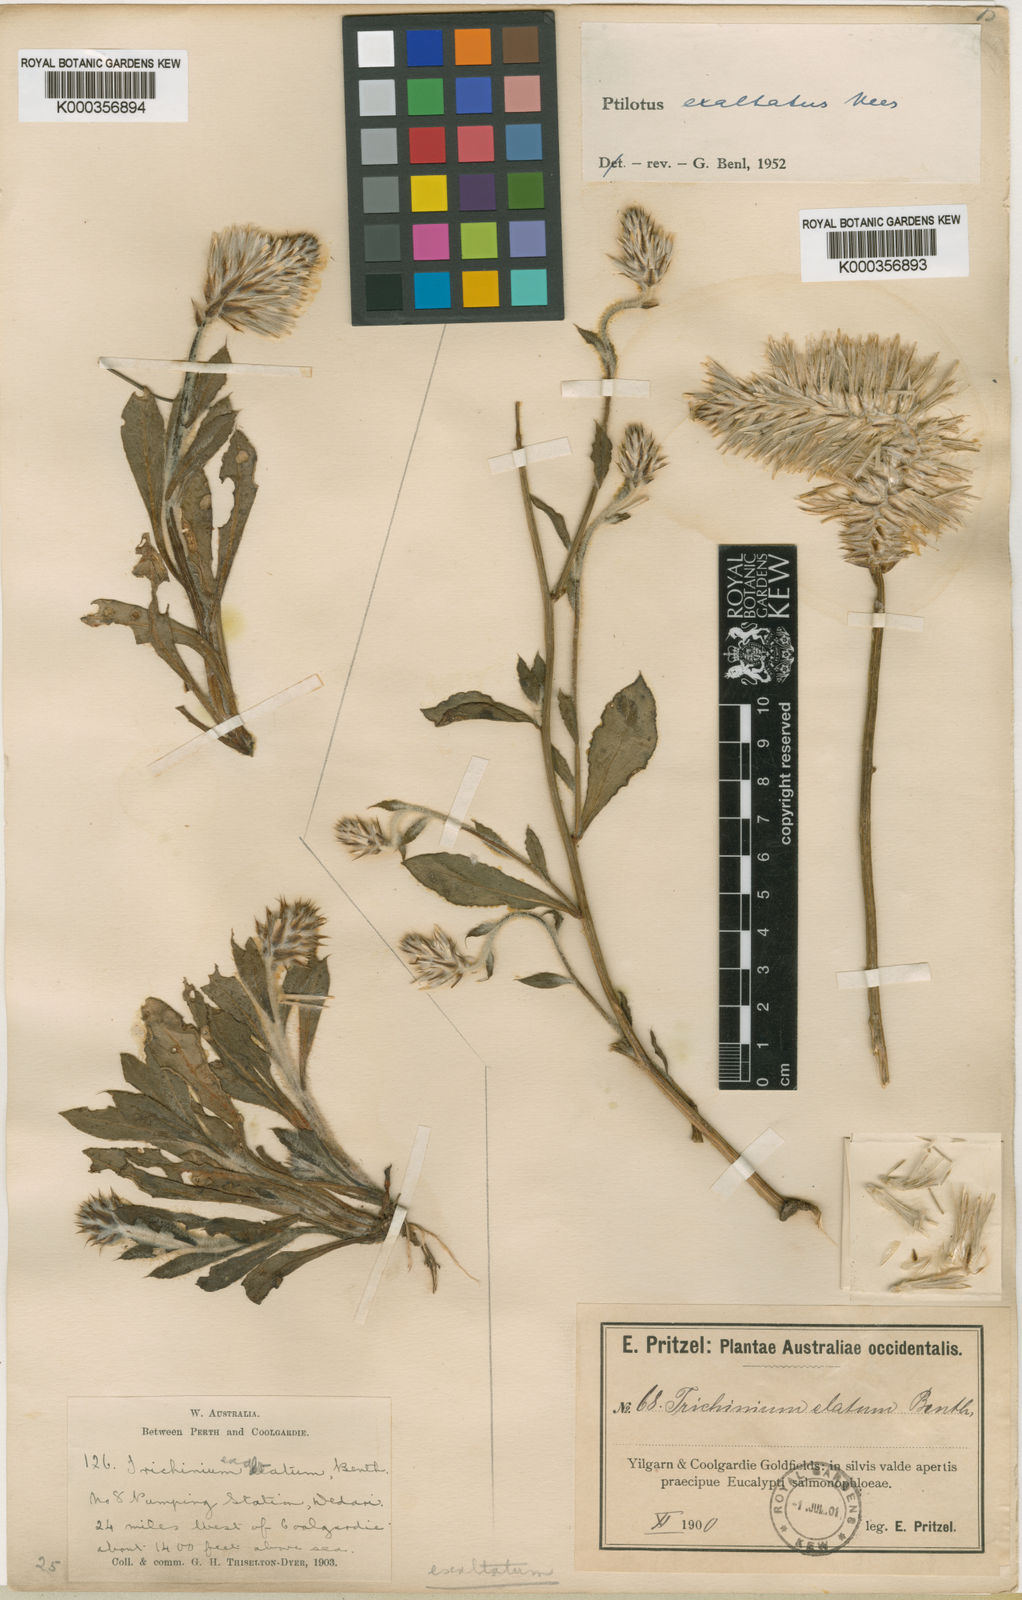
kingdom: Plantae
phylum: Tracheophyta
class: Magnoliopsida
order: Caryophyllales
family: Amaranthaceae
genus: Ptilotus
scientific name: Ptilotus exaltatus
